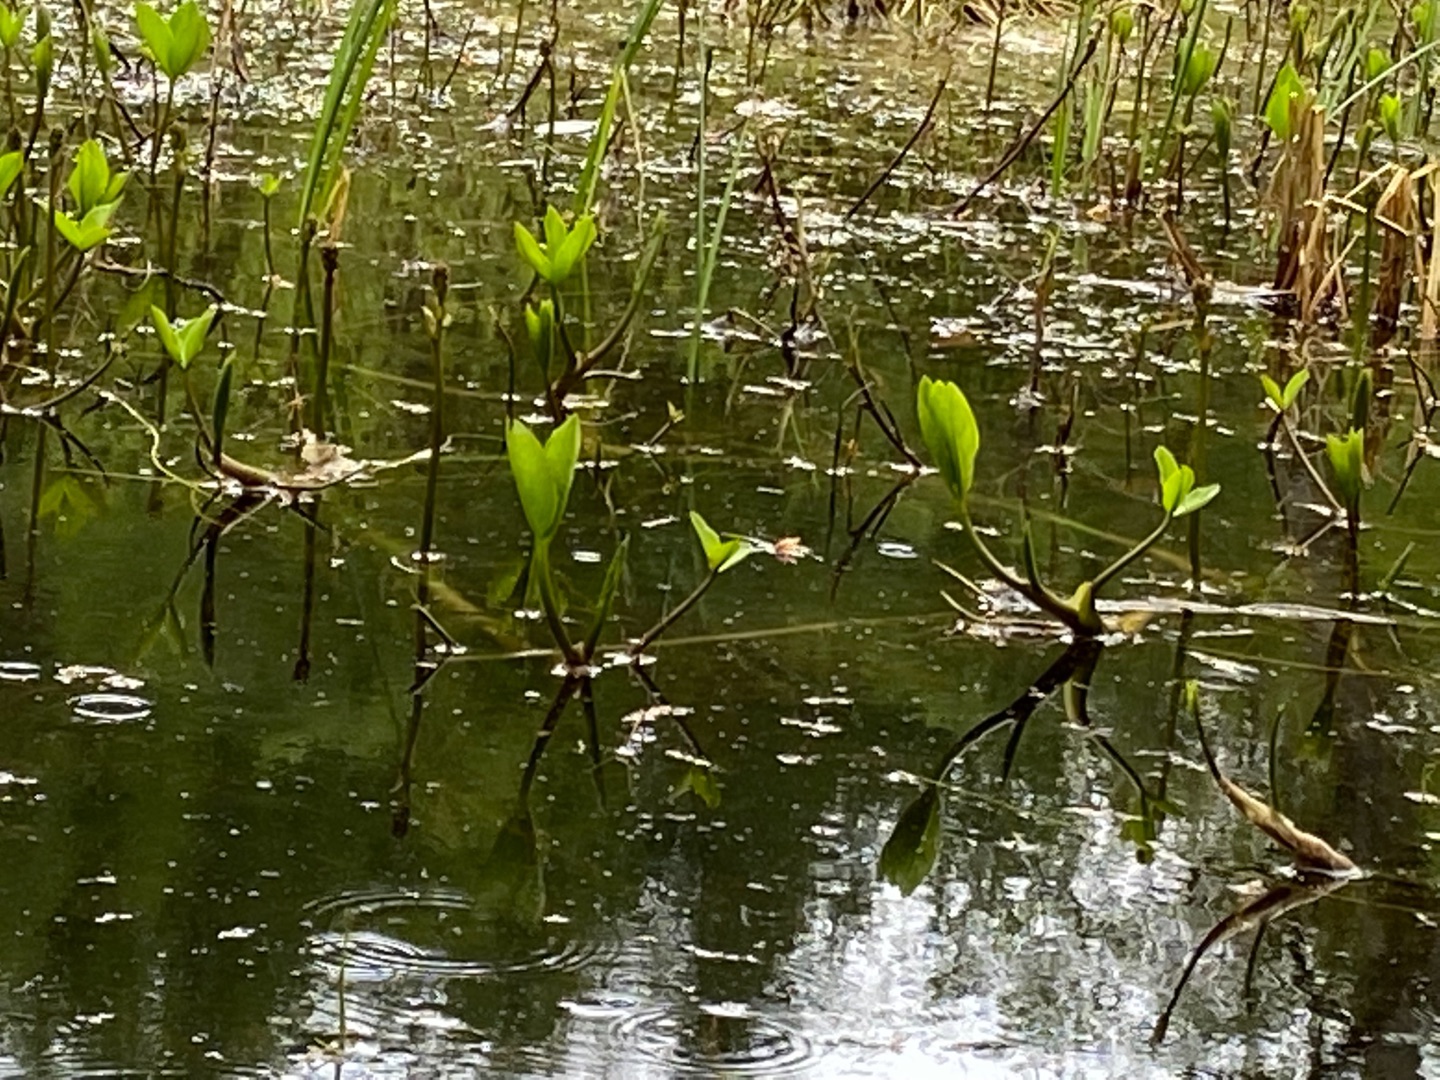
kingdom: Plantae
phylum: Tracheophyta
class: Magnoliopsida
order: Asterales
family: Menyanthaceae
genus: Menyanthes
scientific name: Menyanthes trifoliata
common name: Bukkeblad
